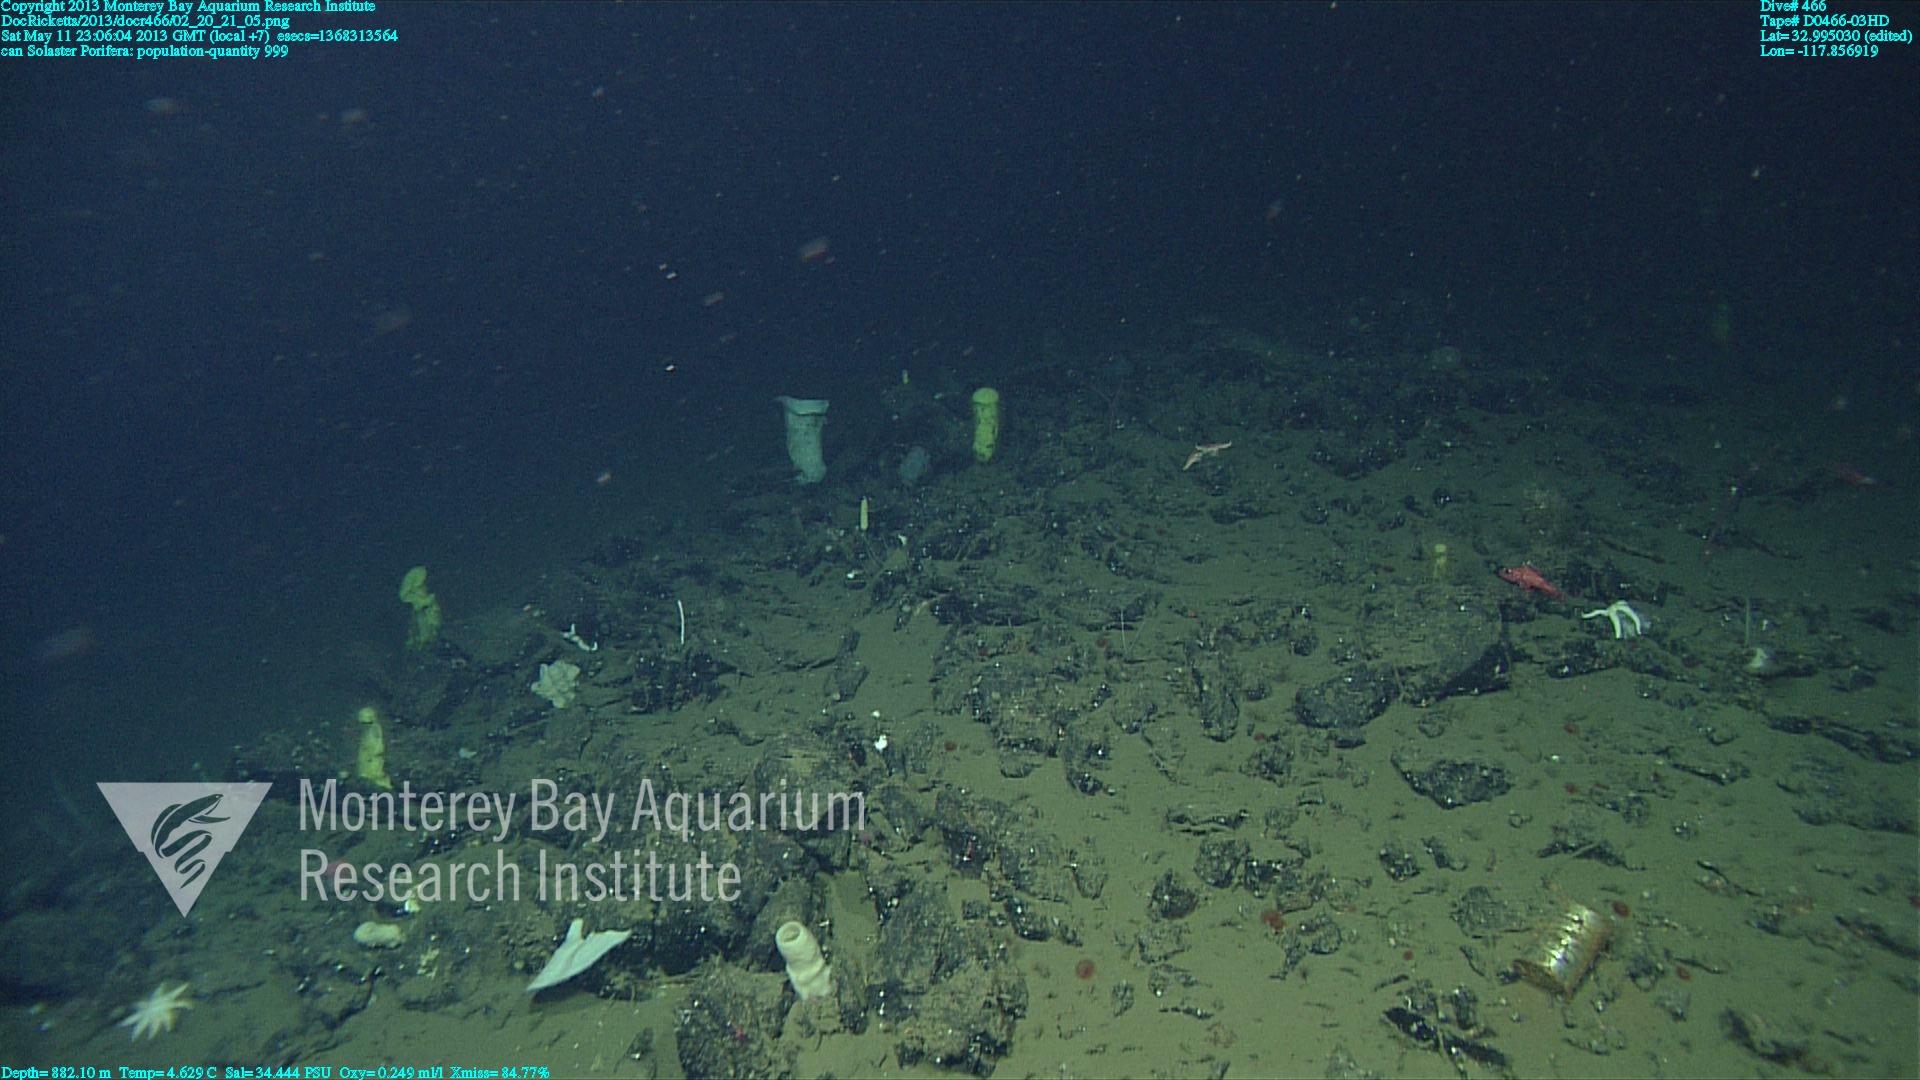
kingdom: Animalia
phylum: Porifera
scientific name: Porifera
